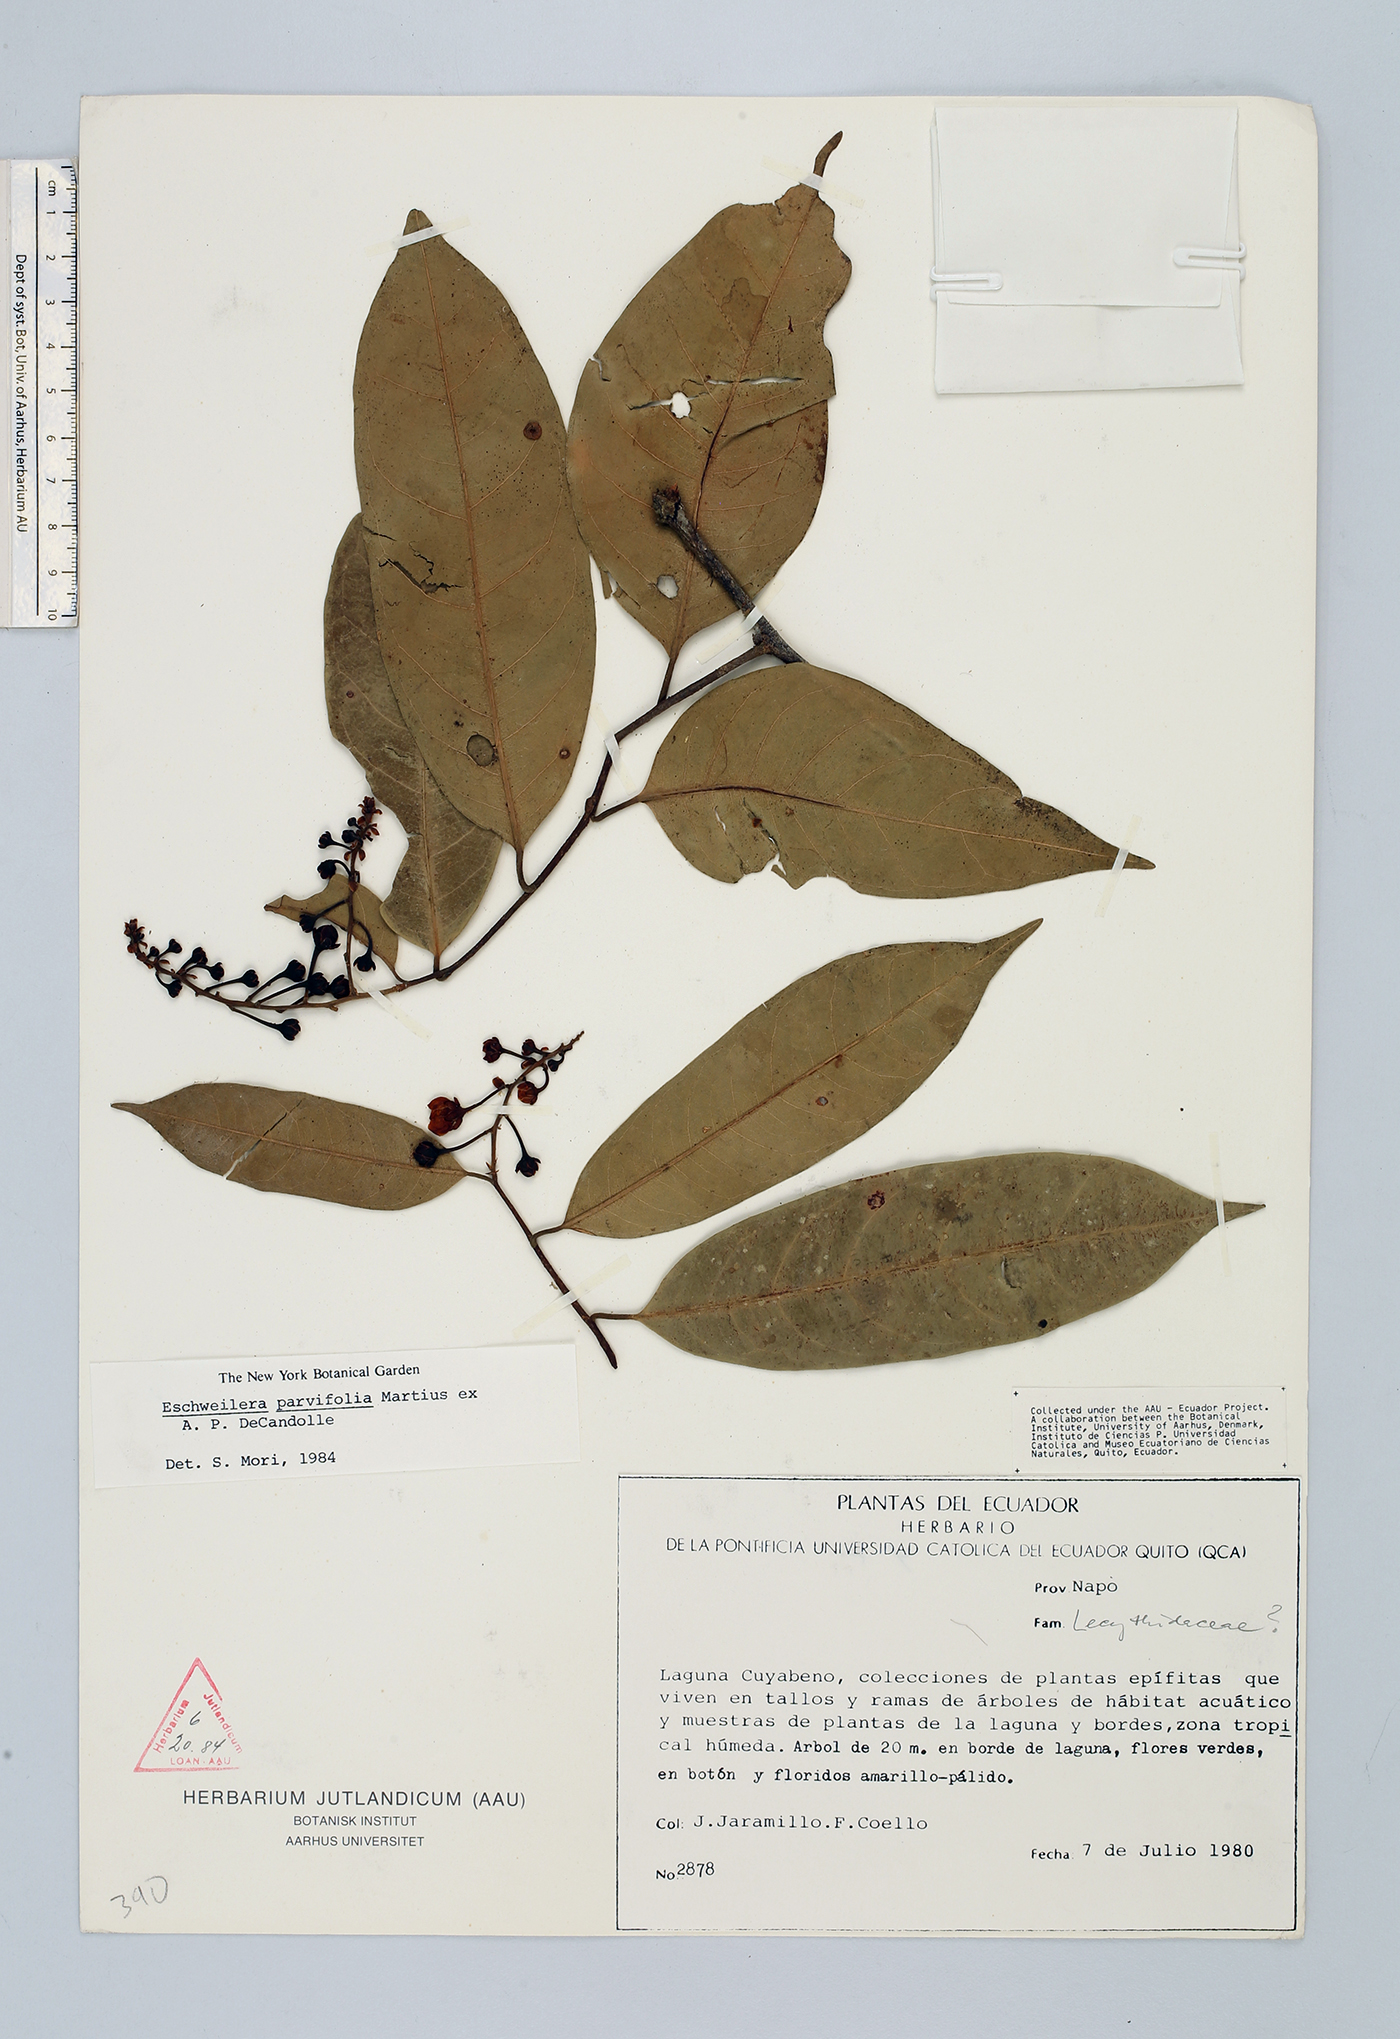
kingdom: Plantae
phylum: Tracheophyta
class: Magnoliopsida
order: Ericales
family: Lecythidaceae
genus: Eschweilera
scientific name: Eschweilera parvifolia
